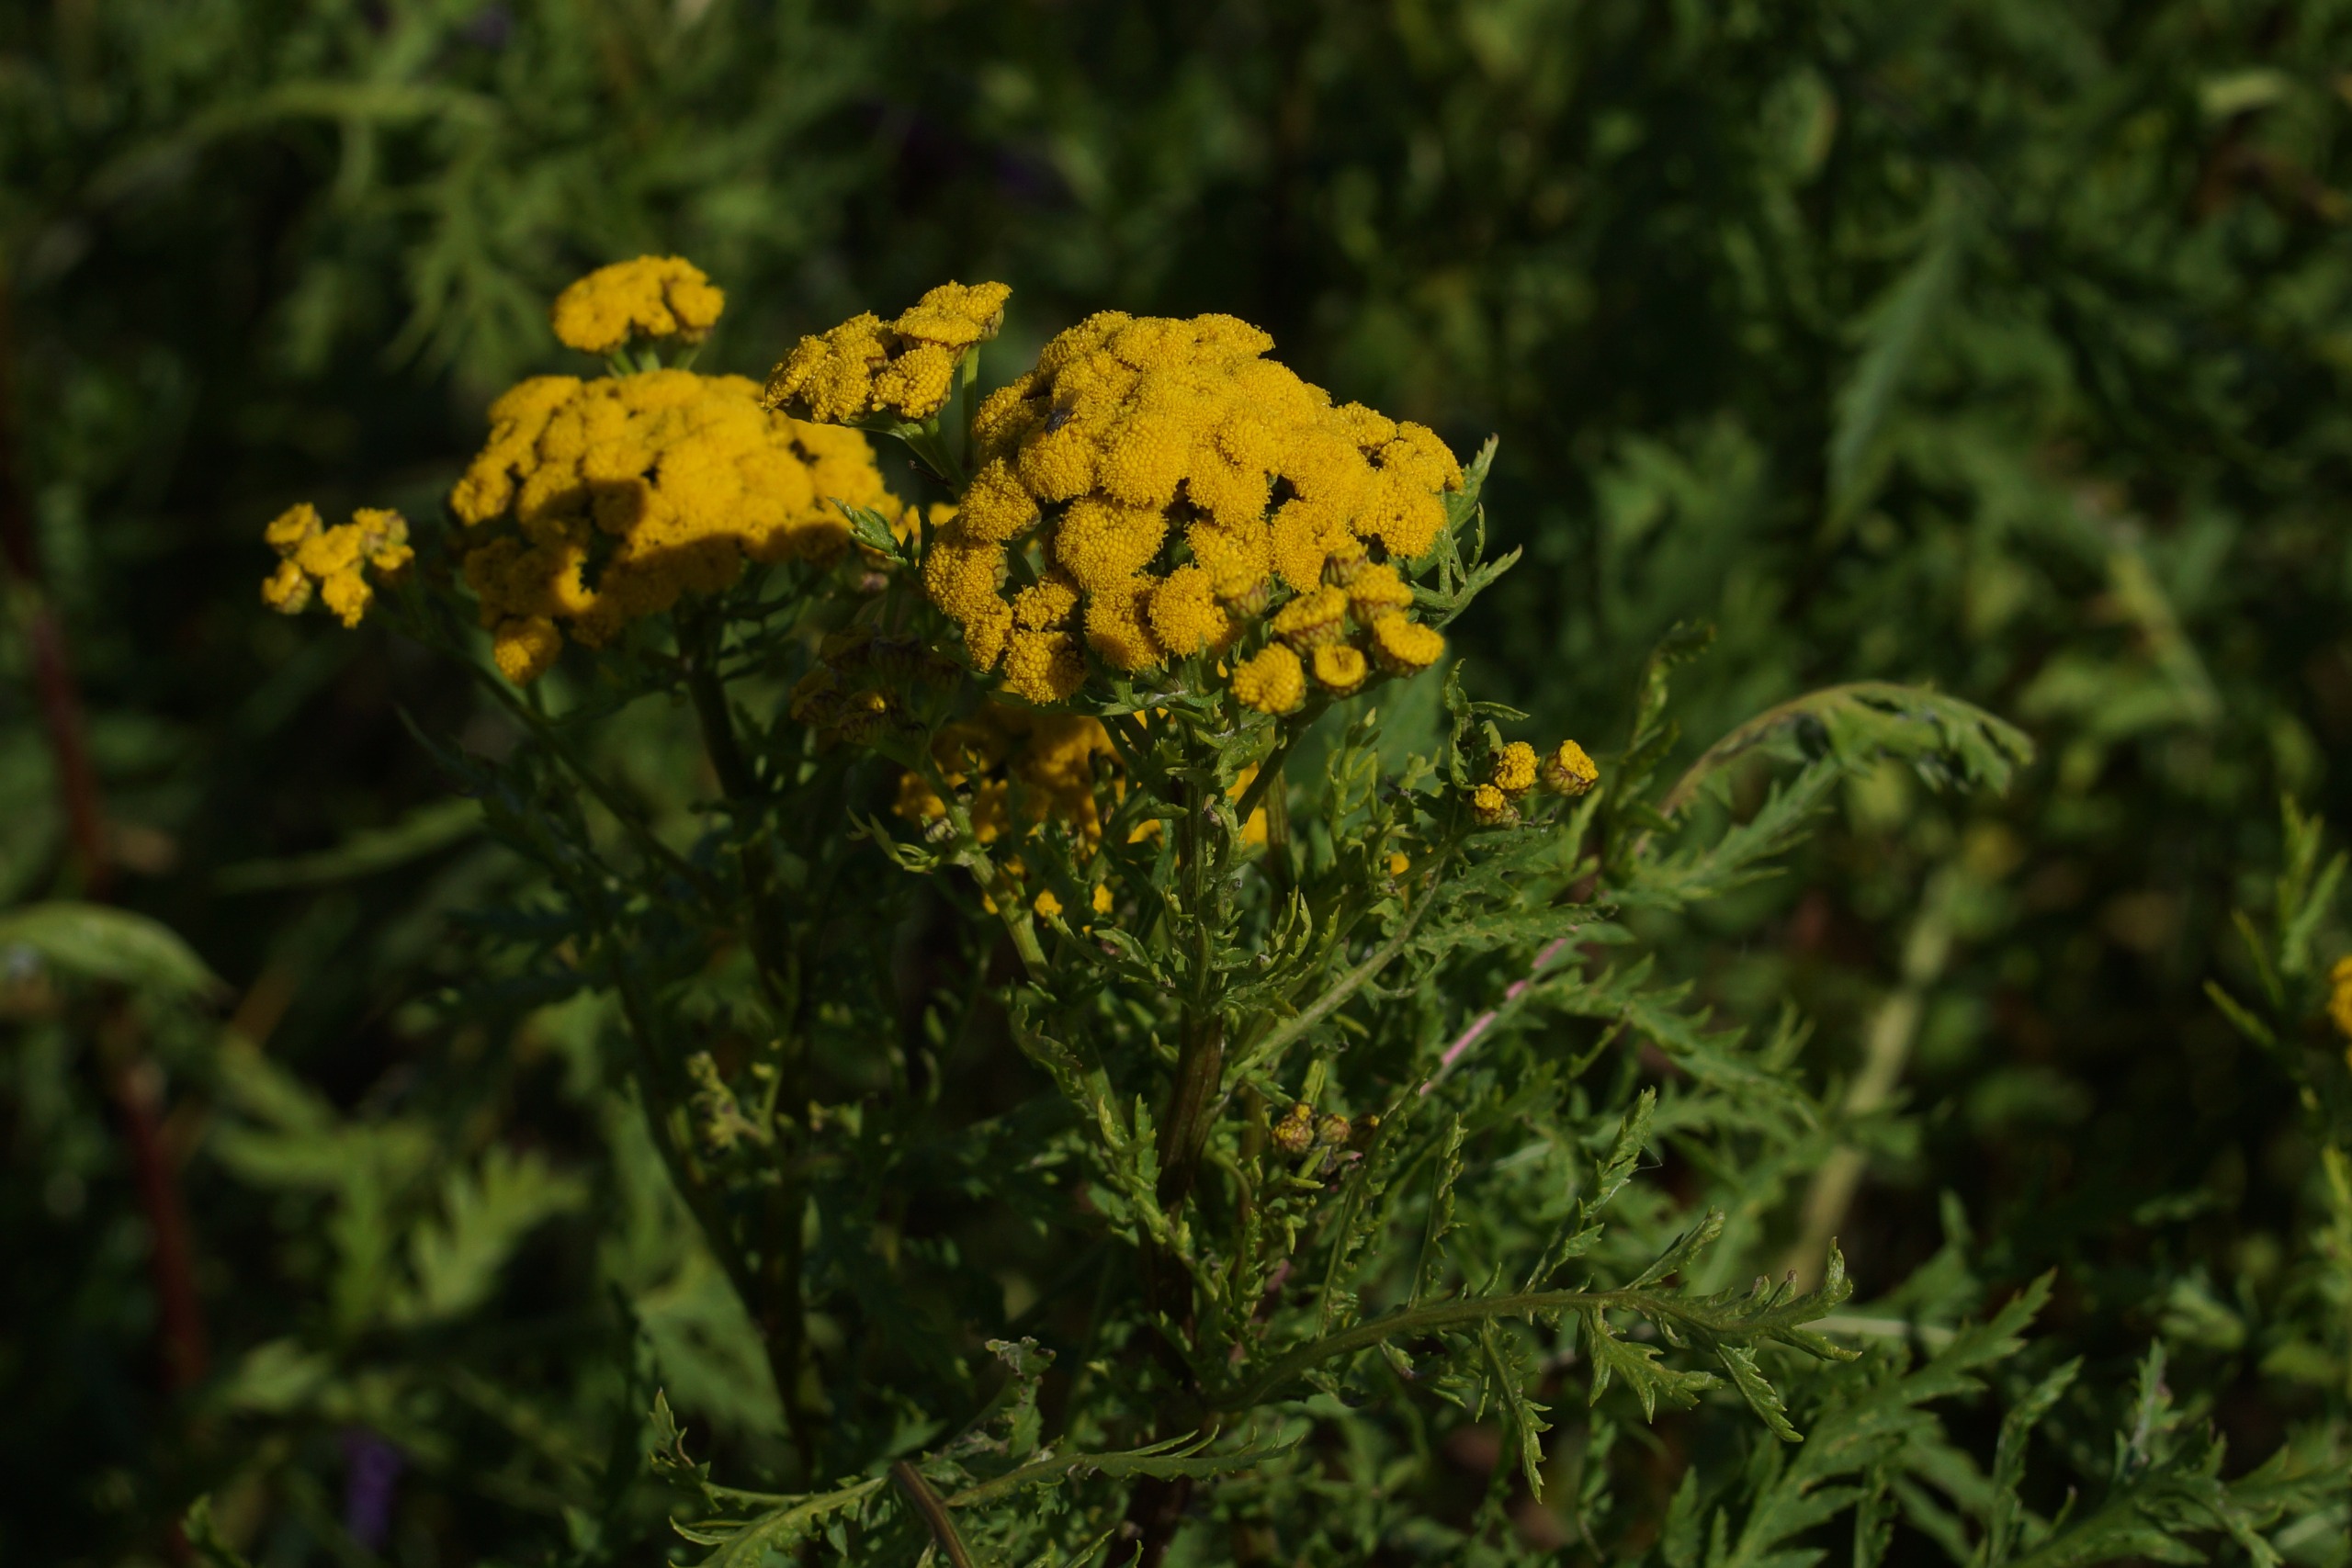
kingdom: Plantae
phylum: Tracheophyta
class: Magnoliopsida
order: Asterales
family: Asteraceae
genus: Tanacetum
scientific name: Tanacetum vulgare
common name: Rejnfan
